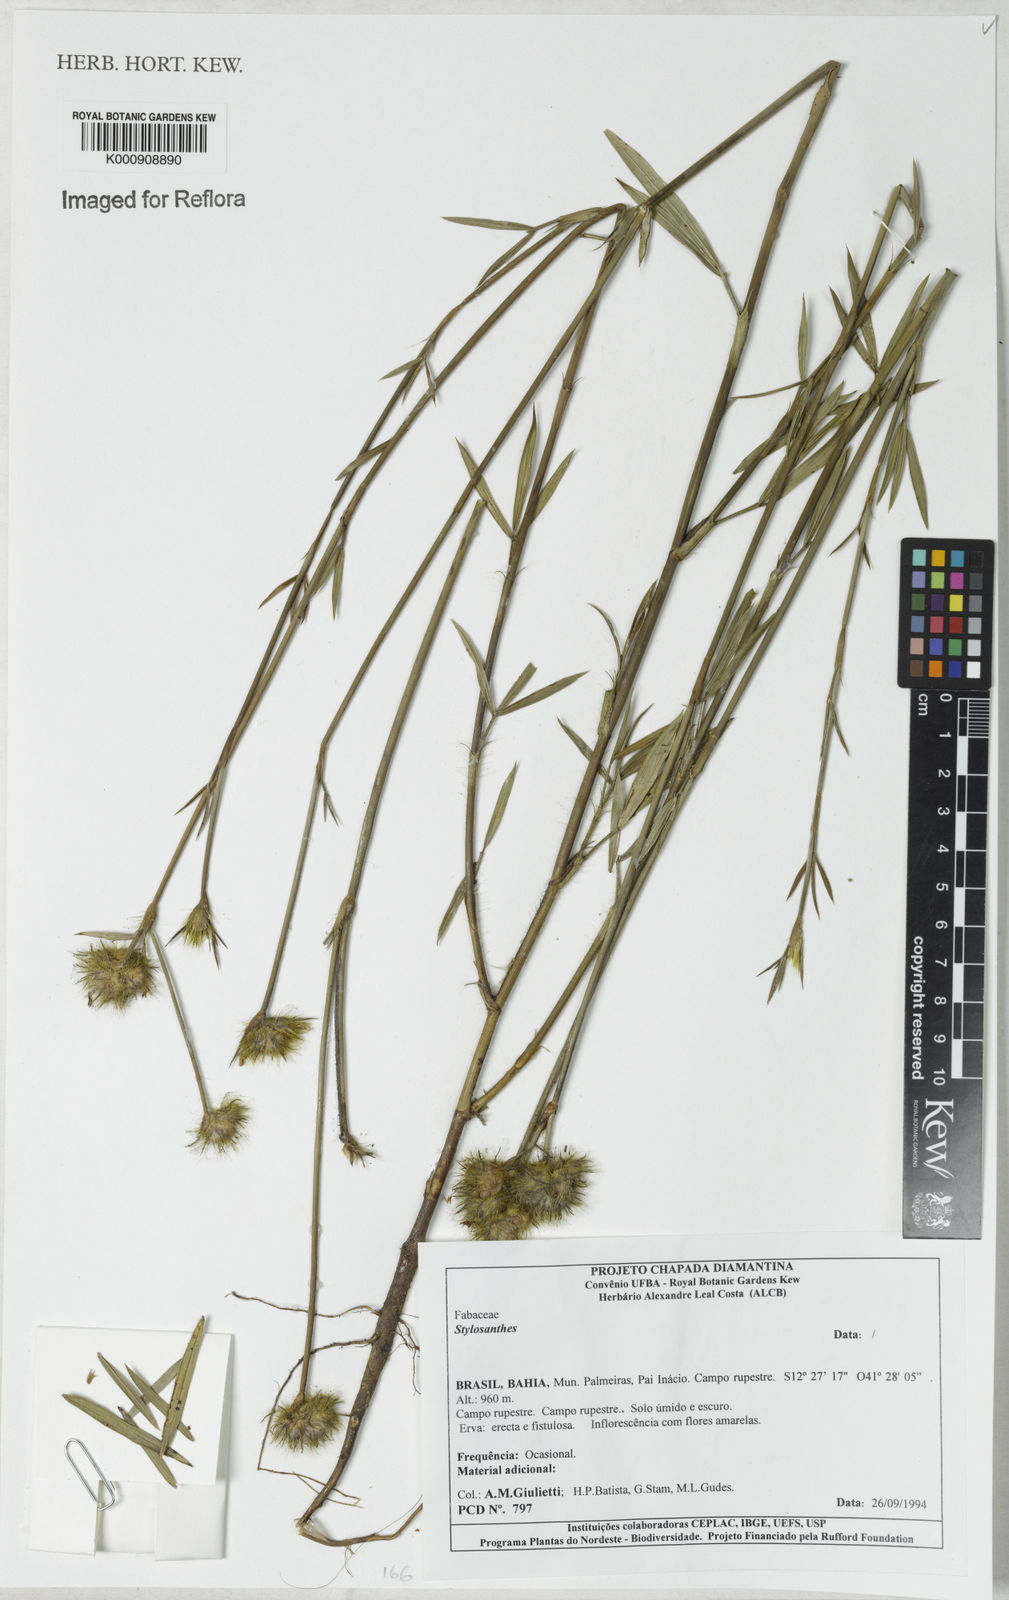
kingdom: Plantae
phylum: Tracheophyta
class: Magnoliopsida
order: Fabales
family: Fabaceae
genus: Stylosanthes
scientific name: Stylosanthes
